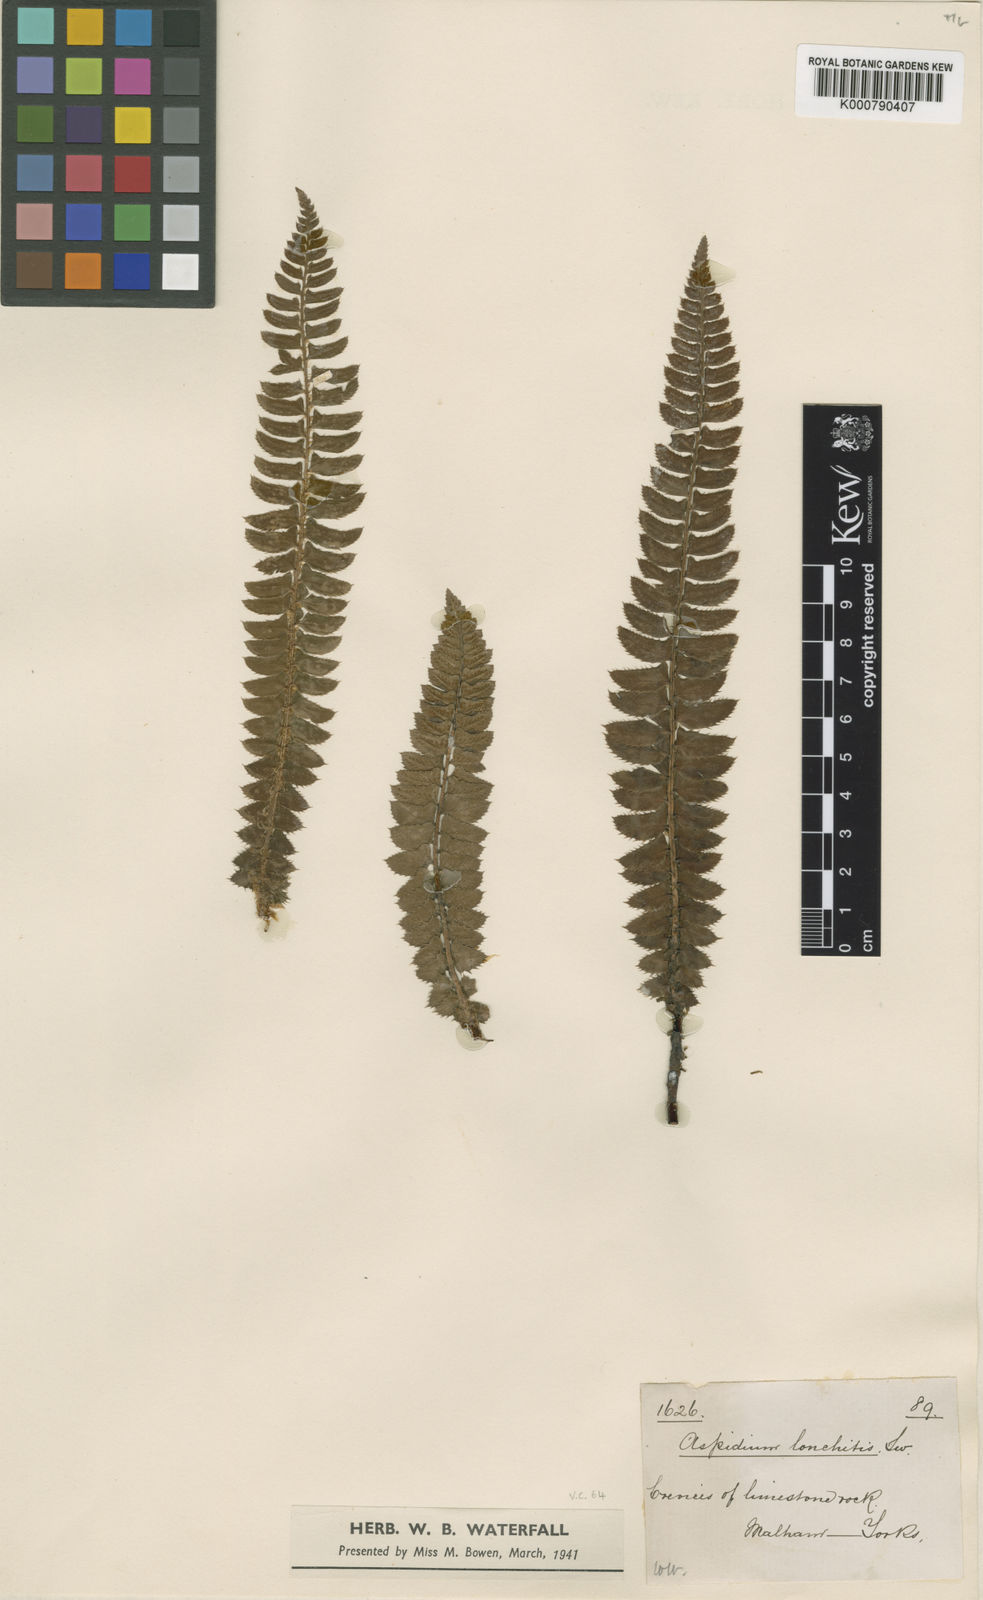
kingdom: Plantae
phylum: Tracheophyta
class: Polypodiopsida
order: Polypodiales
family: Dryopteridaceae
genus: Polystichum
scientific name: Polystichum
